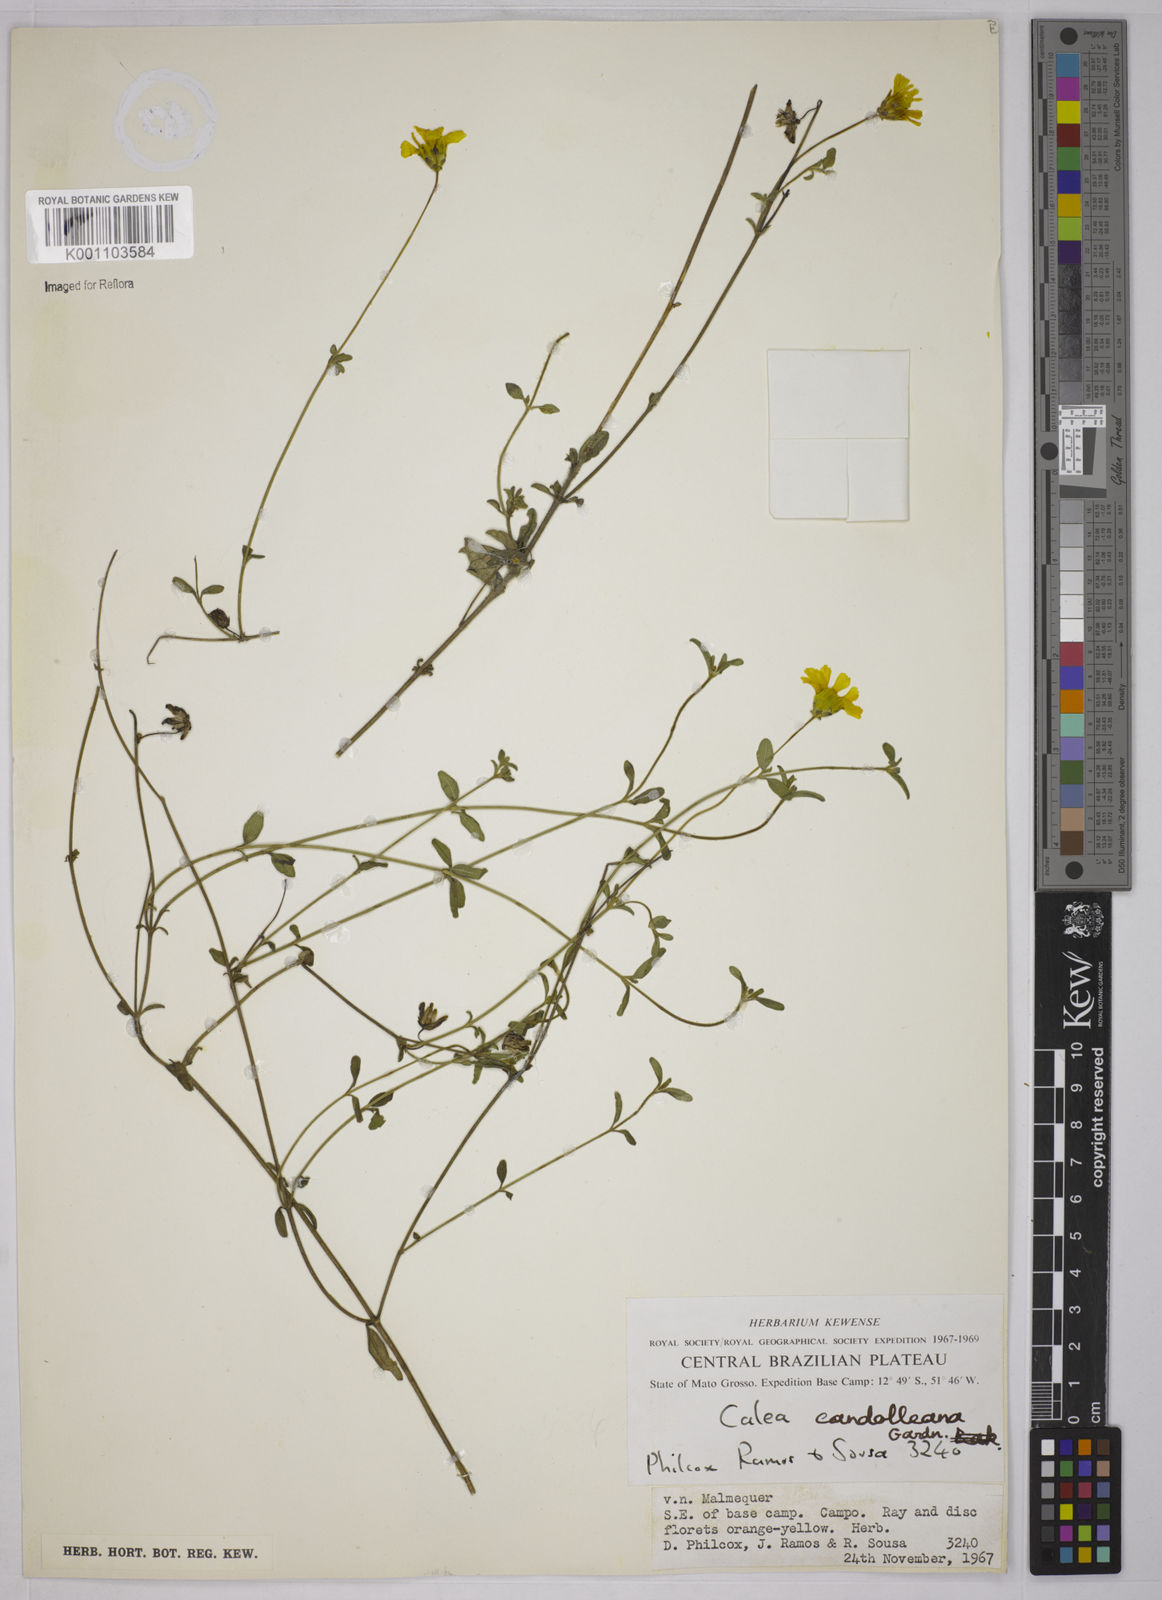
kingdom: Plantae
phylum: Tracheophyta
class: Magnoliopsida
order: Asterales
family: Asteraceae
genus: Calea
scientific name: Calea candolleana
